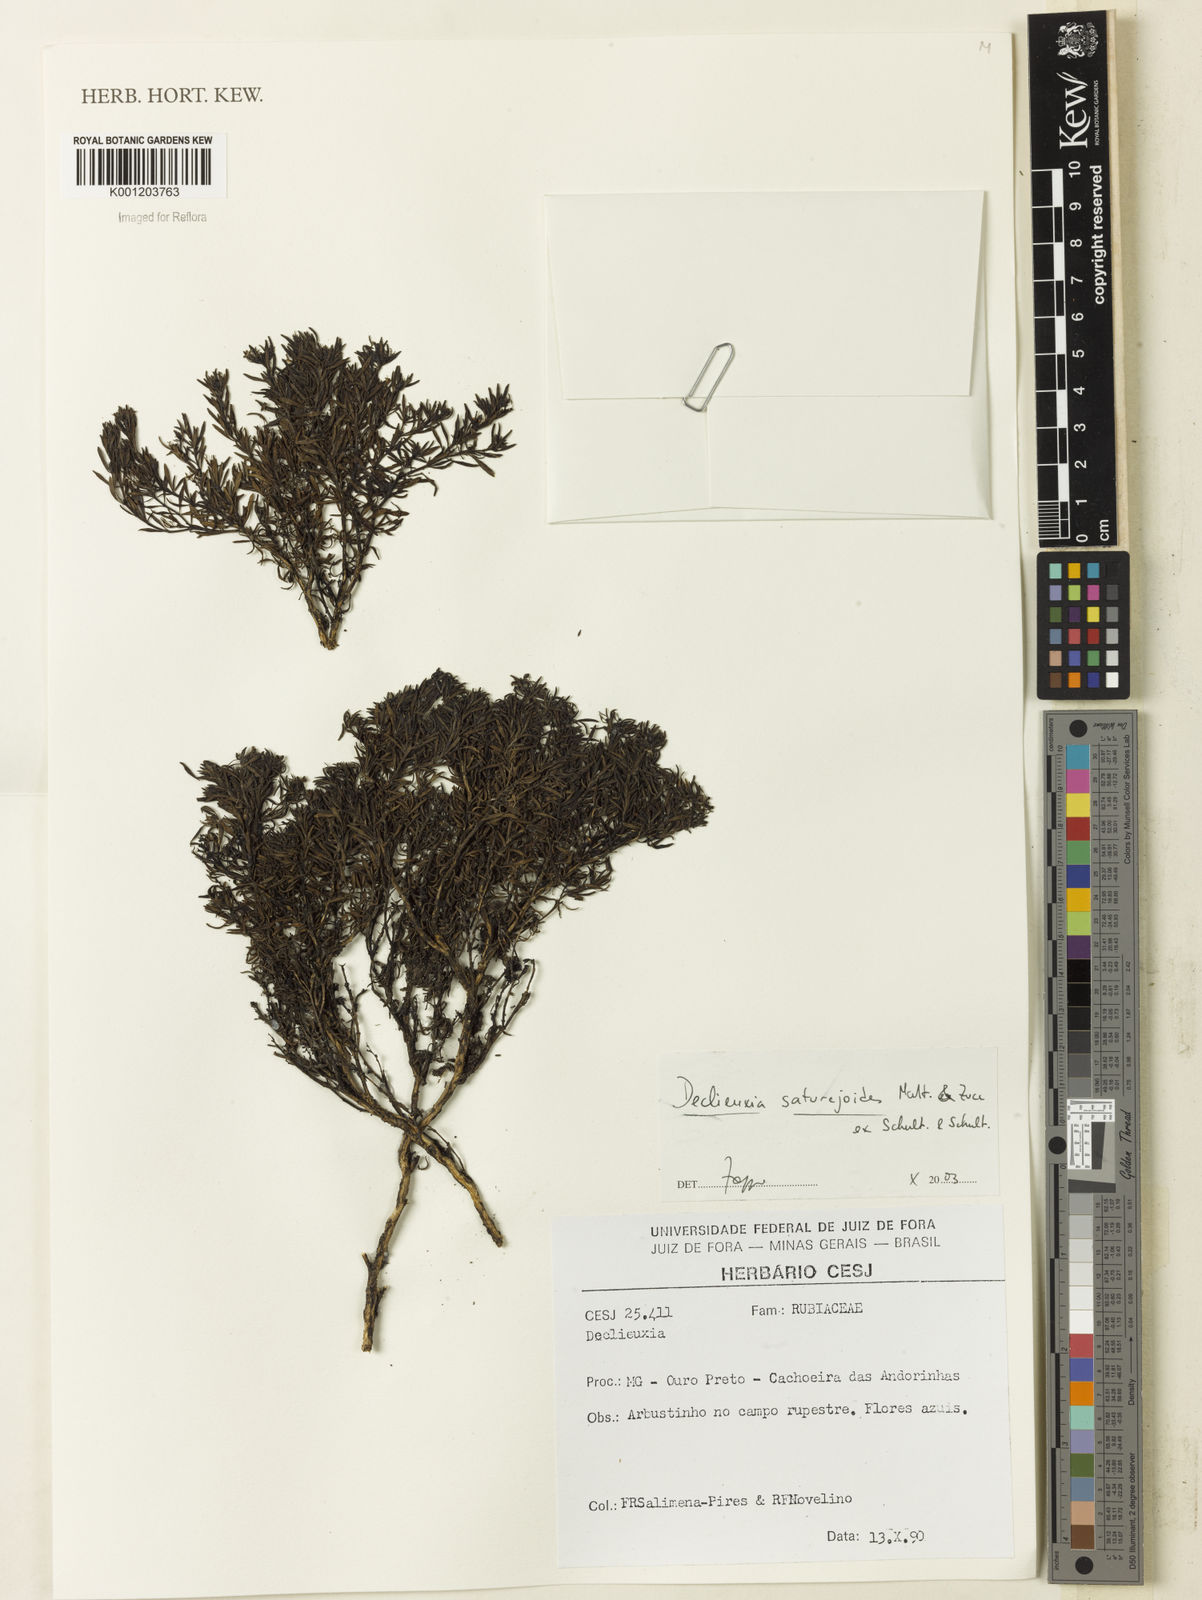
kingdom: Plantae
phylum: Tracheophyta
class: Magnoliopsida
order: Gentianales
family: Rubiaceae
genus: Declieuxia
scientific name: Declieuxia
